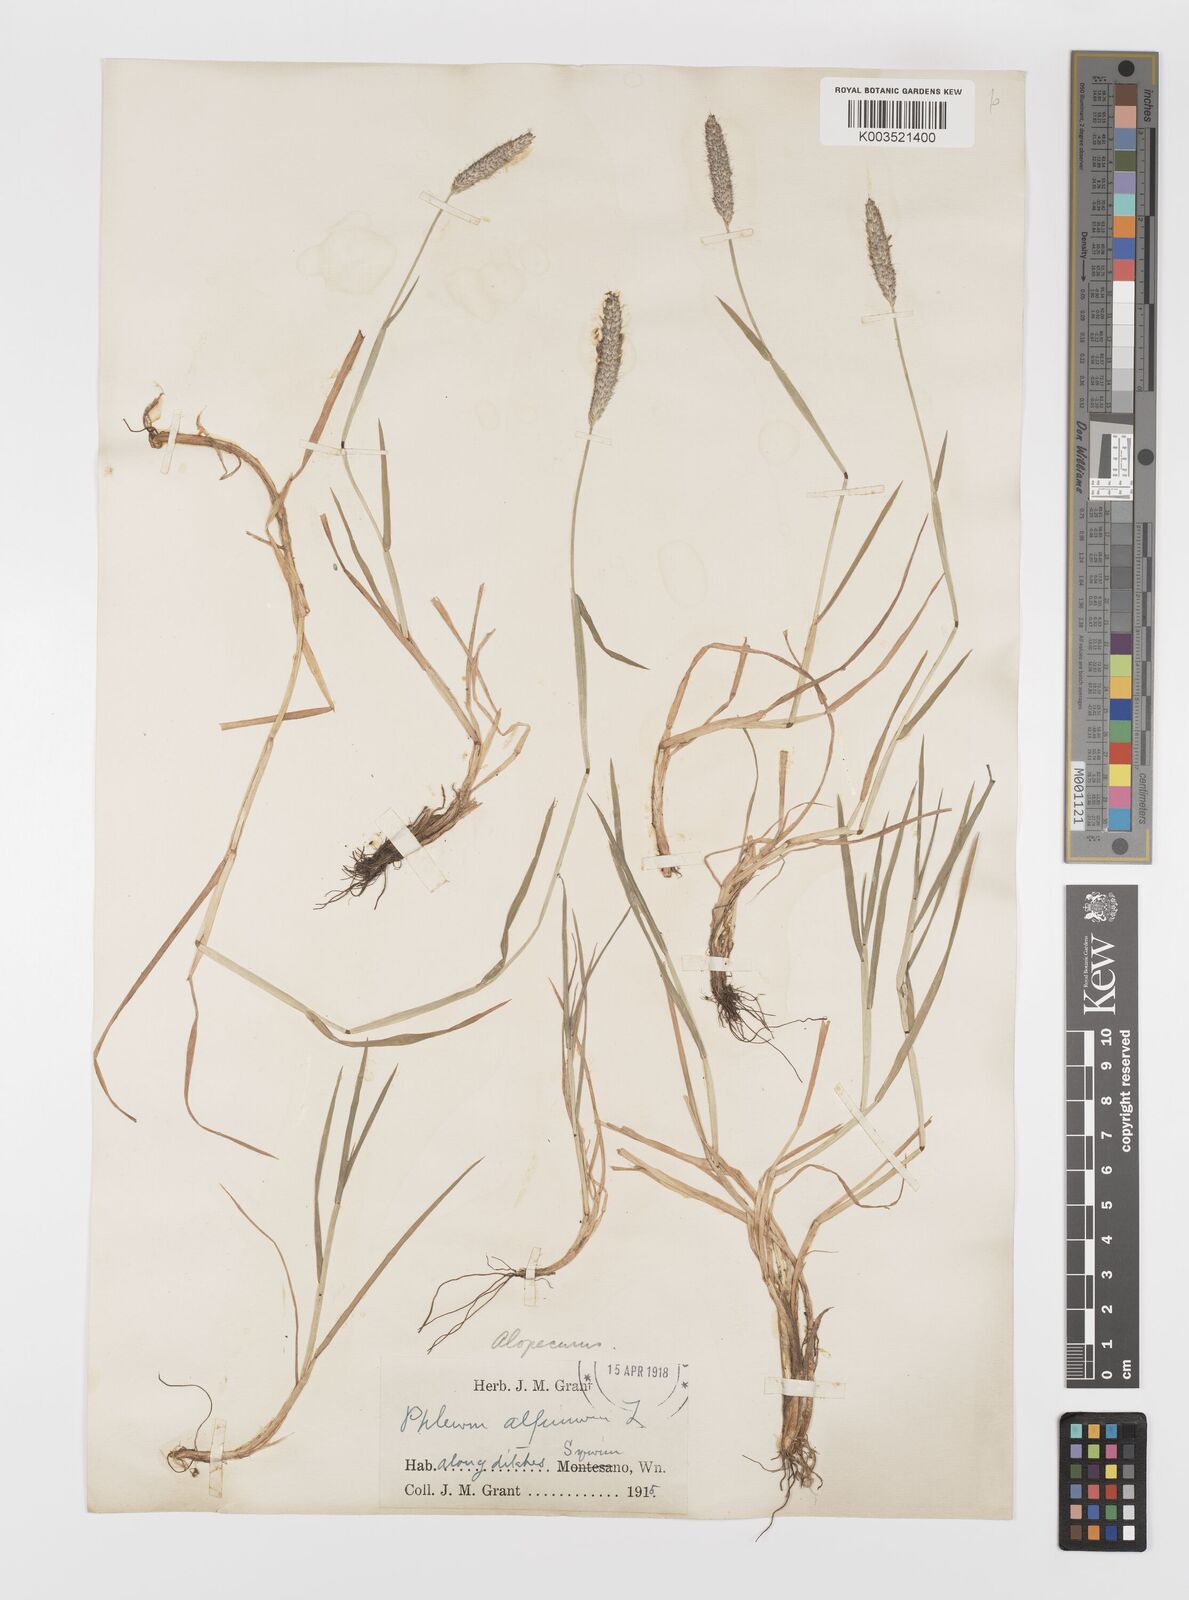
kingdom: Plantae
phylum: Tracheophyta
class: Liliopsida
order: Poales
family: Poaceae
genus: Alopecurus
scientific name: Alopecurus geniculatus
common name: Water foxtail
